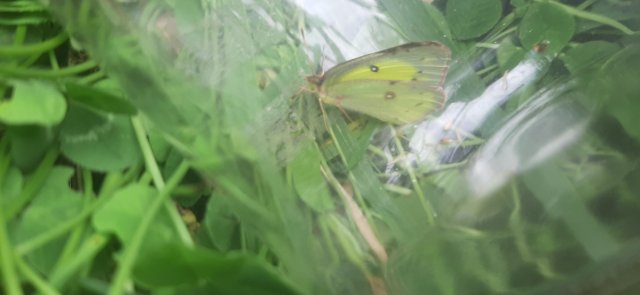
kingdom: Animalia
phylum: Arthropoda
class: Insecta
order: Lepidoptera
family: Pieridae
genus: Colias
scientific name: Colias philodice
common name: Clouded Sulphur
